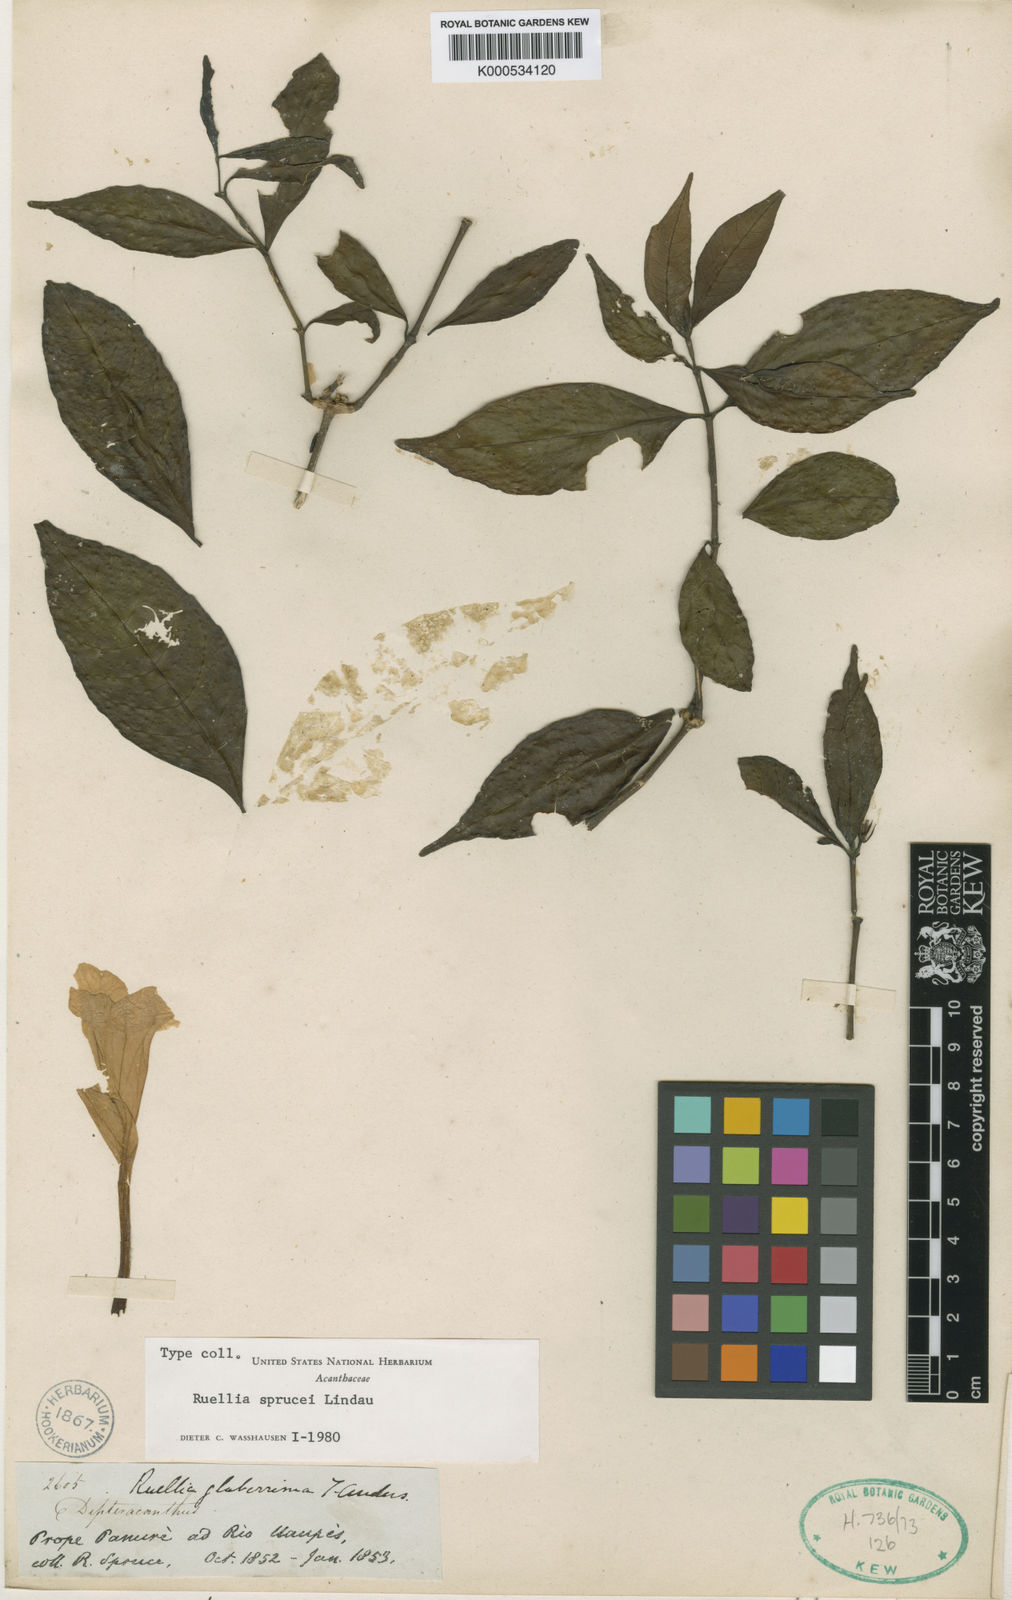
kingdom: Plantae
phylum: Tracheophyta
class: Magnoliopsida
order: Lamiales
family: Acanthaceae
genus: Ruellia
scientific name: Ruellia sprucei
